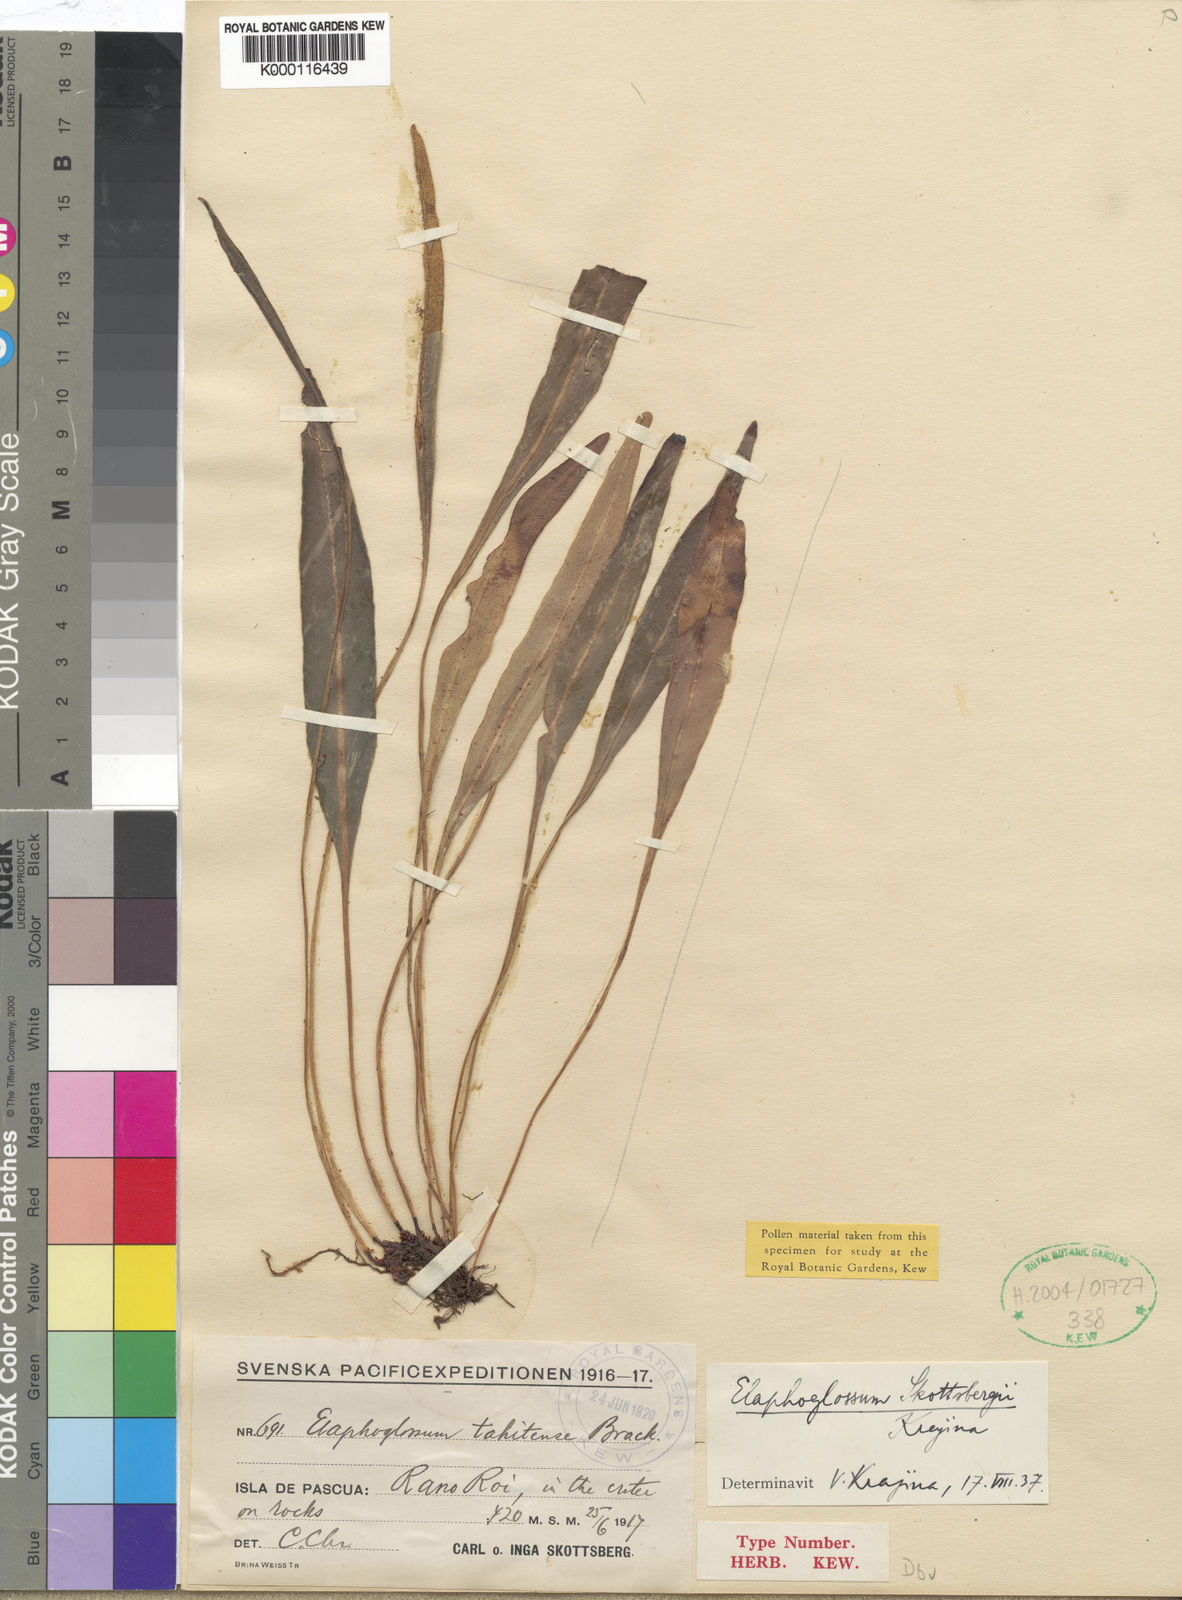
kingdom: Plantae
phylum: Tracheophyta
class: Polypodiopsida
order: Polypodiales
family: Dryopteridaceae
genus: Elaphoglossum
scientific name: Elaphoglossum skottsbergii
